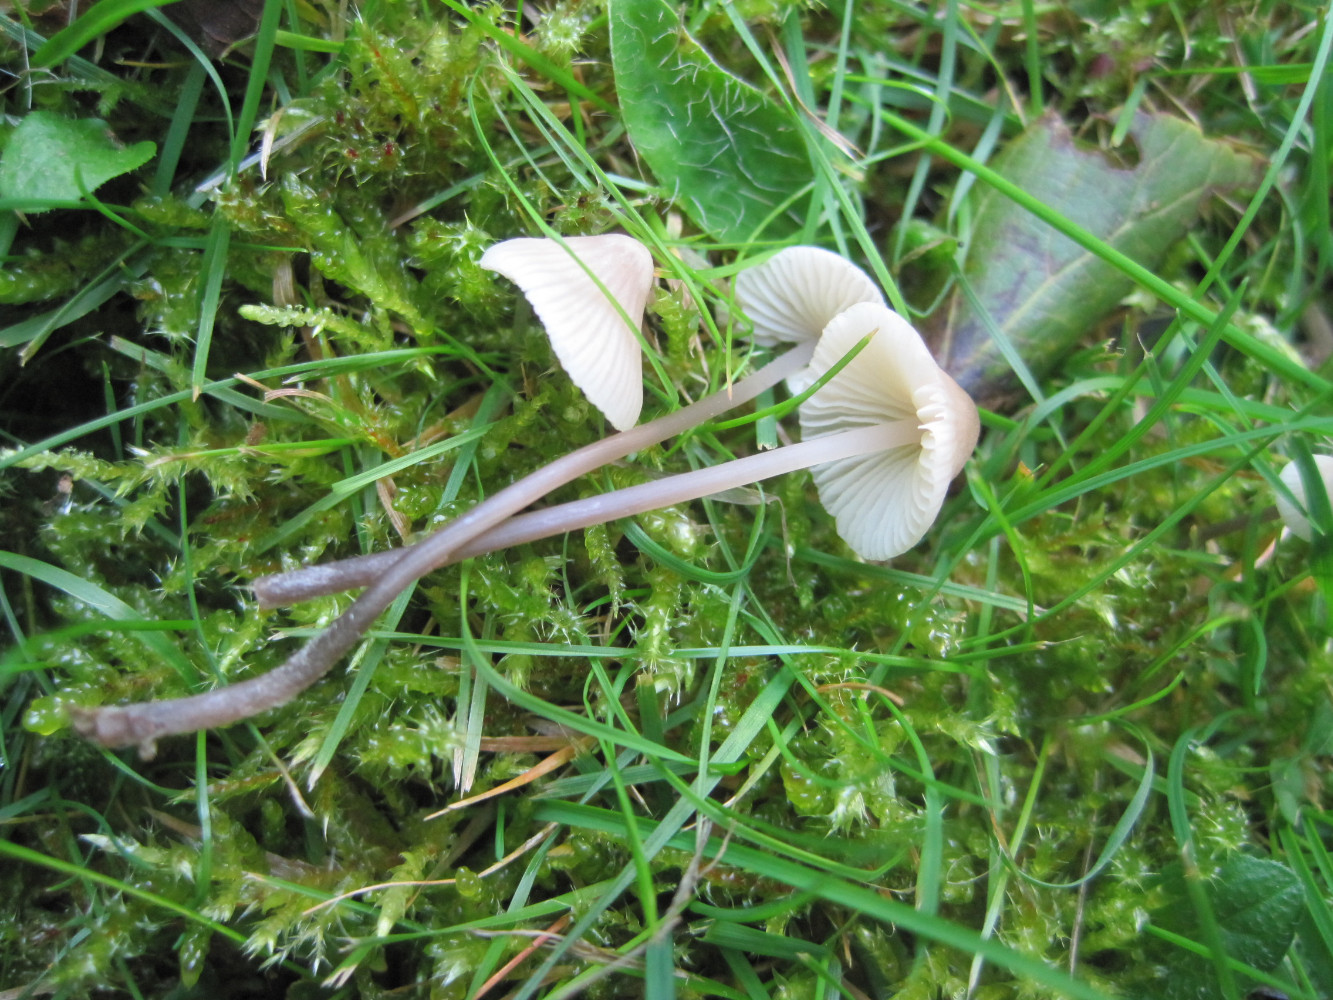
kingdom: Fungi
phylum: Basidiomycota
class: Agaricomycetes
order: Agaricales
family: Mycenaceae
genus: Mycena
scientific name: Mycena flavescens
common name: grågul huesvamp
